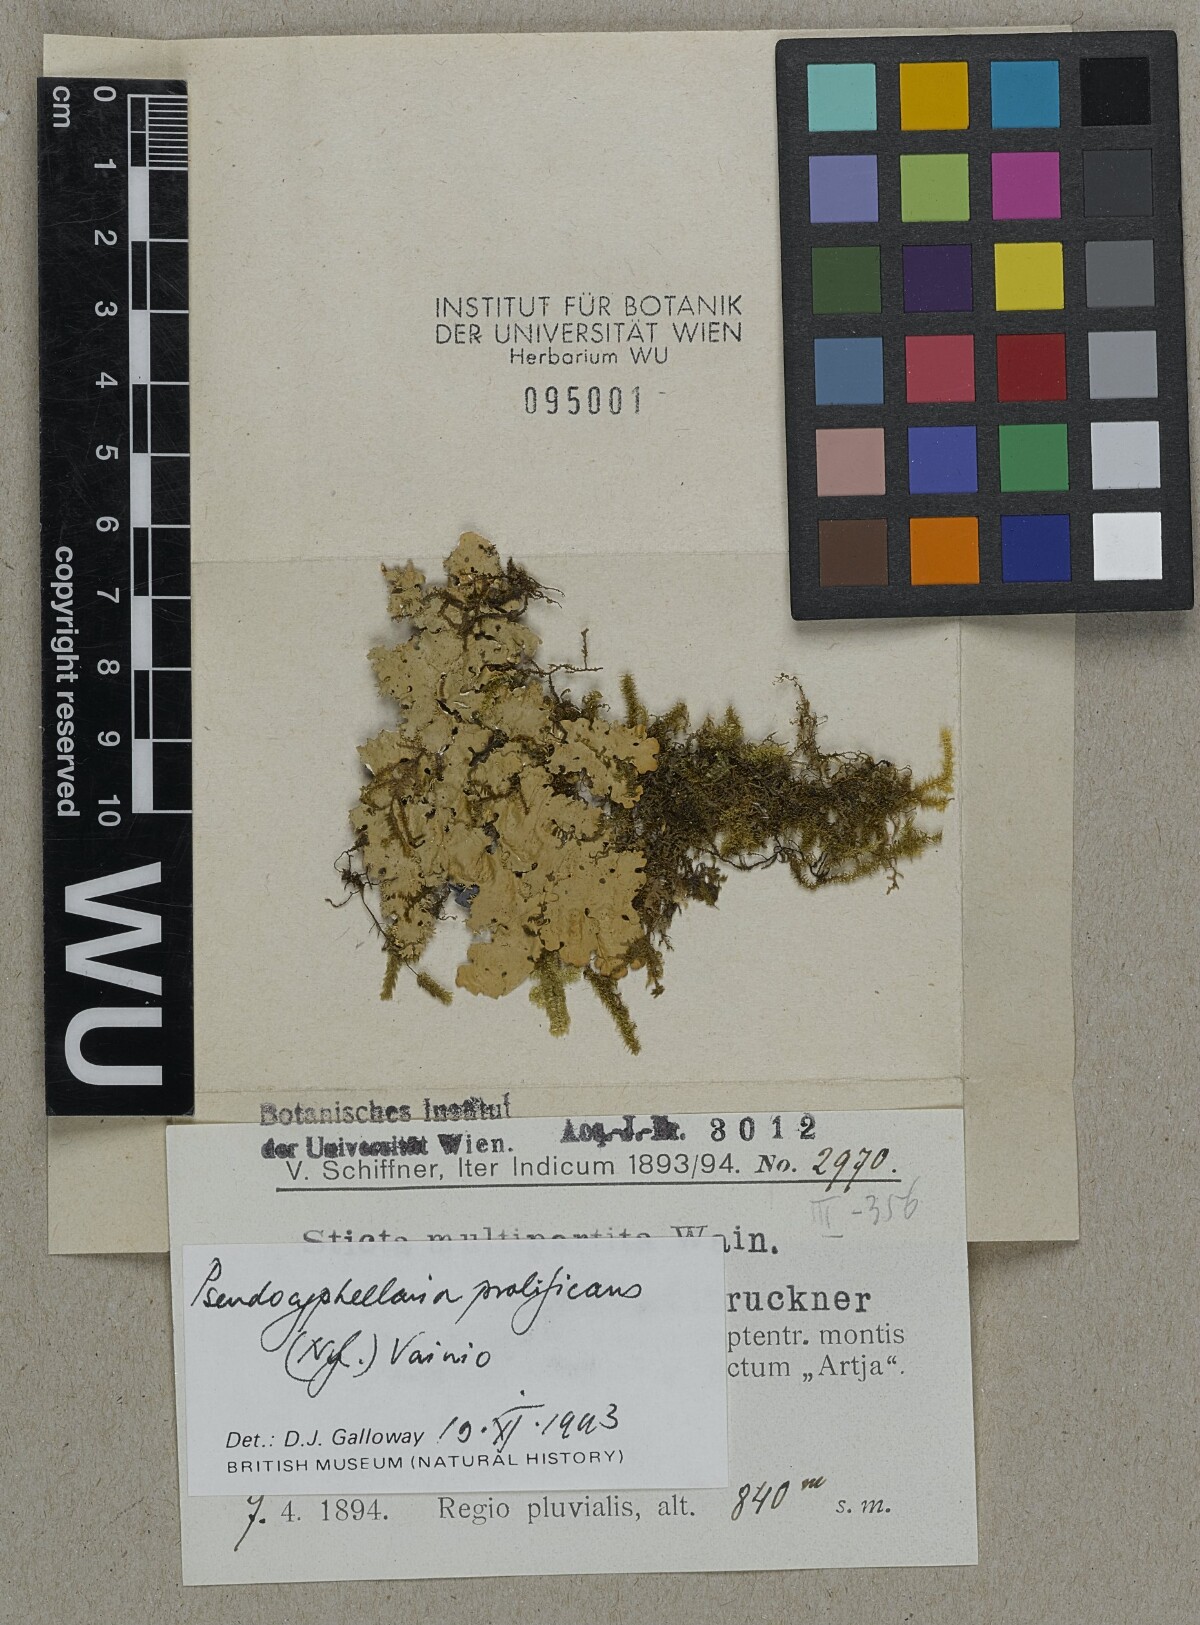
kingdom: Fungi
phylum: Ascomycota
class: Lecanoromycetes
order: Peltigerales
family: Lobariaceae
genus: Pseudocyphellaria
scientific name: Pseudocyphellaria prolificans
